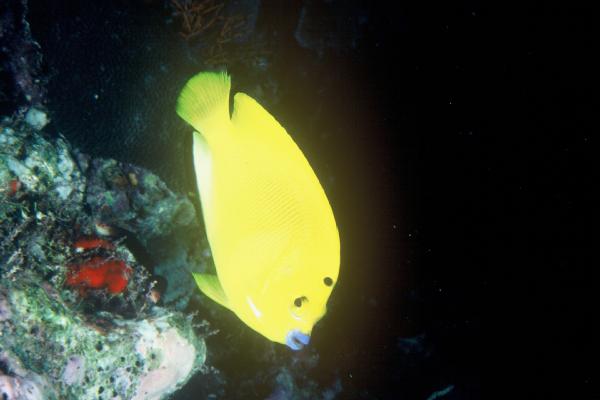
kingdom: Animalia
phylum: Chordata
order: Perciformes
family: Pomacanthidae
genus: Apolemichthys
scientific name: Apolemichthys trimaculatus
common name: Threespot angelfish
